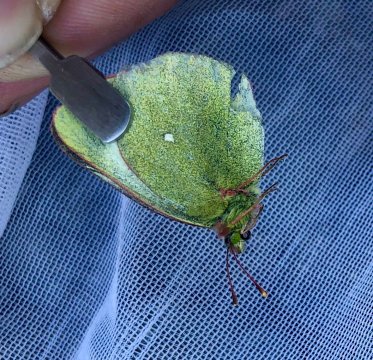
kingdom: Animalia
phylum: Arthropoda
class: Insecta
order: Lepidoptera
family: Pieridae
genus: Colias
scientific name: Colias palaeno
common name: Chippewa Sulphur
